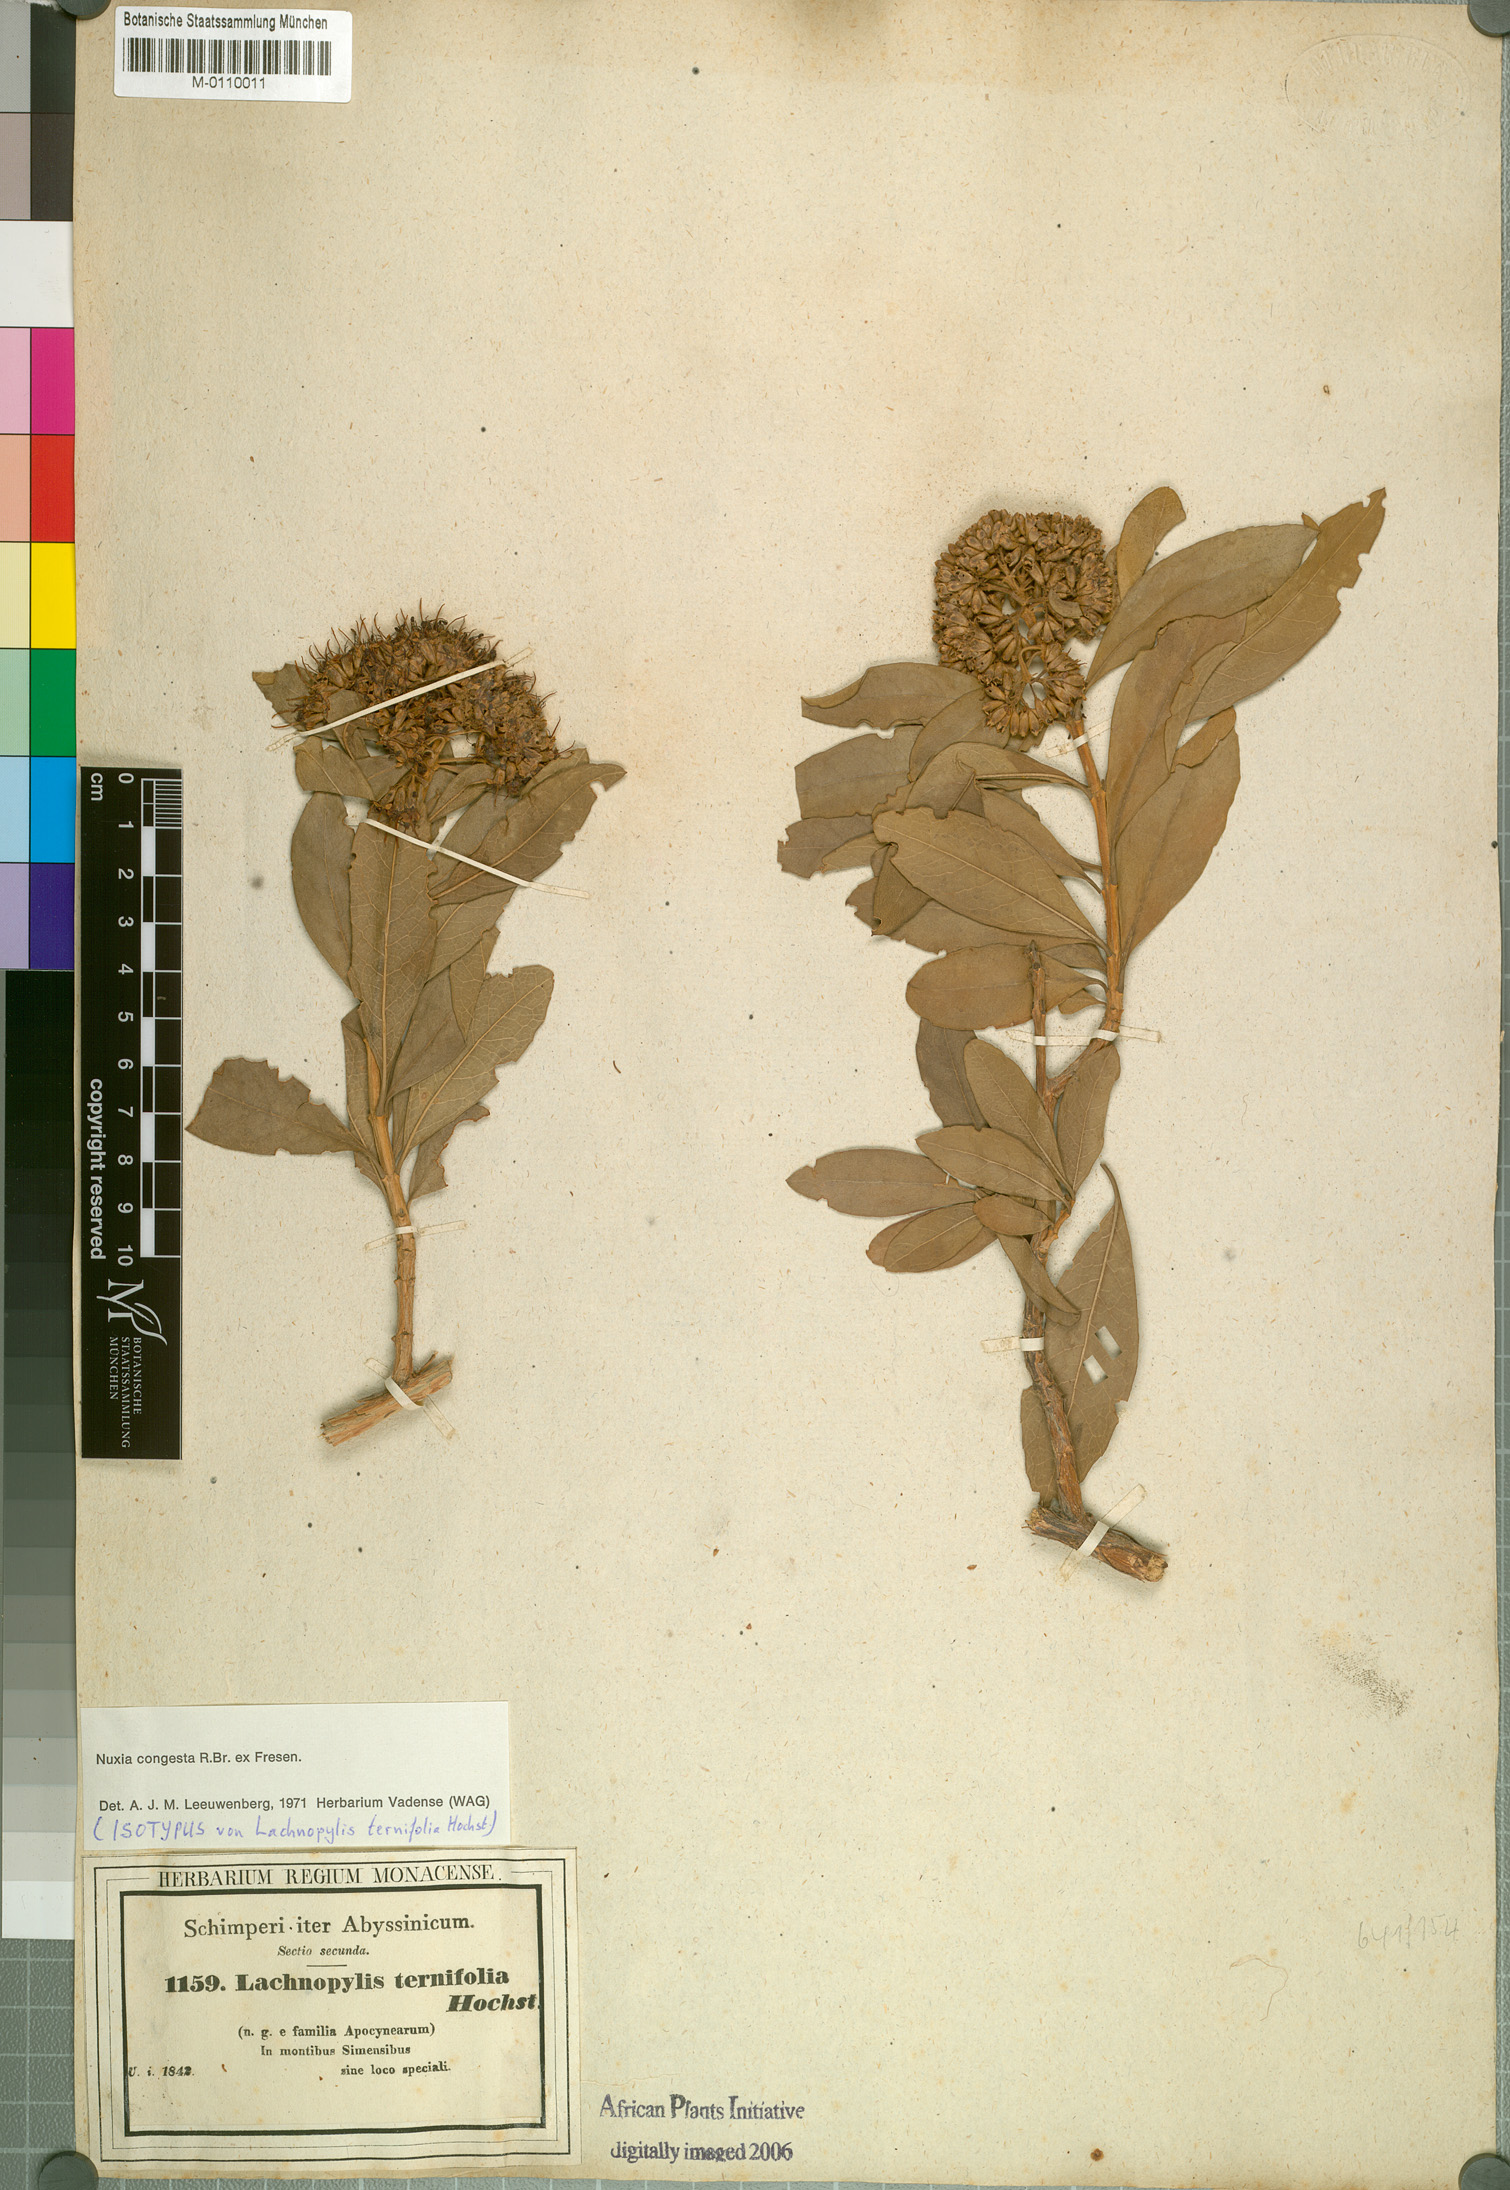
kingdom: Plantae
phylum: Tracheophyta
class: Magnoliopsida
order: Lamiales
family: Stilbaceae
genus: Nuxia
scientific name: Nuxia congesta
